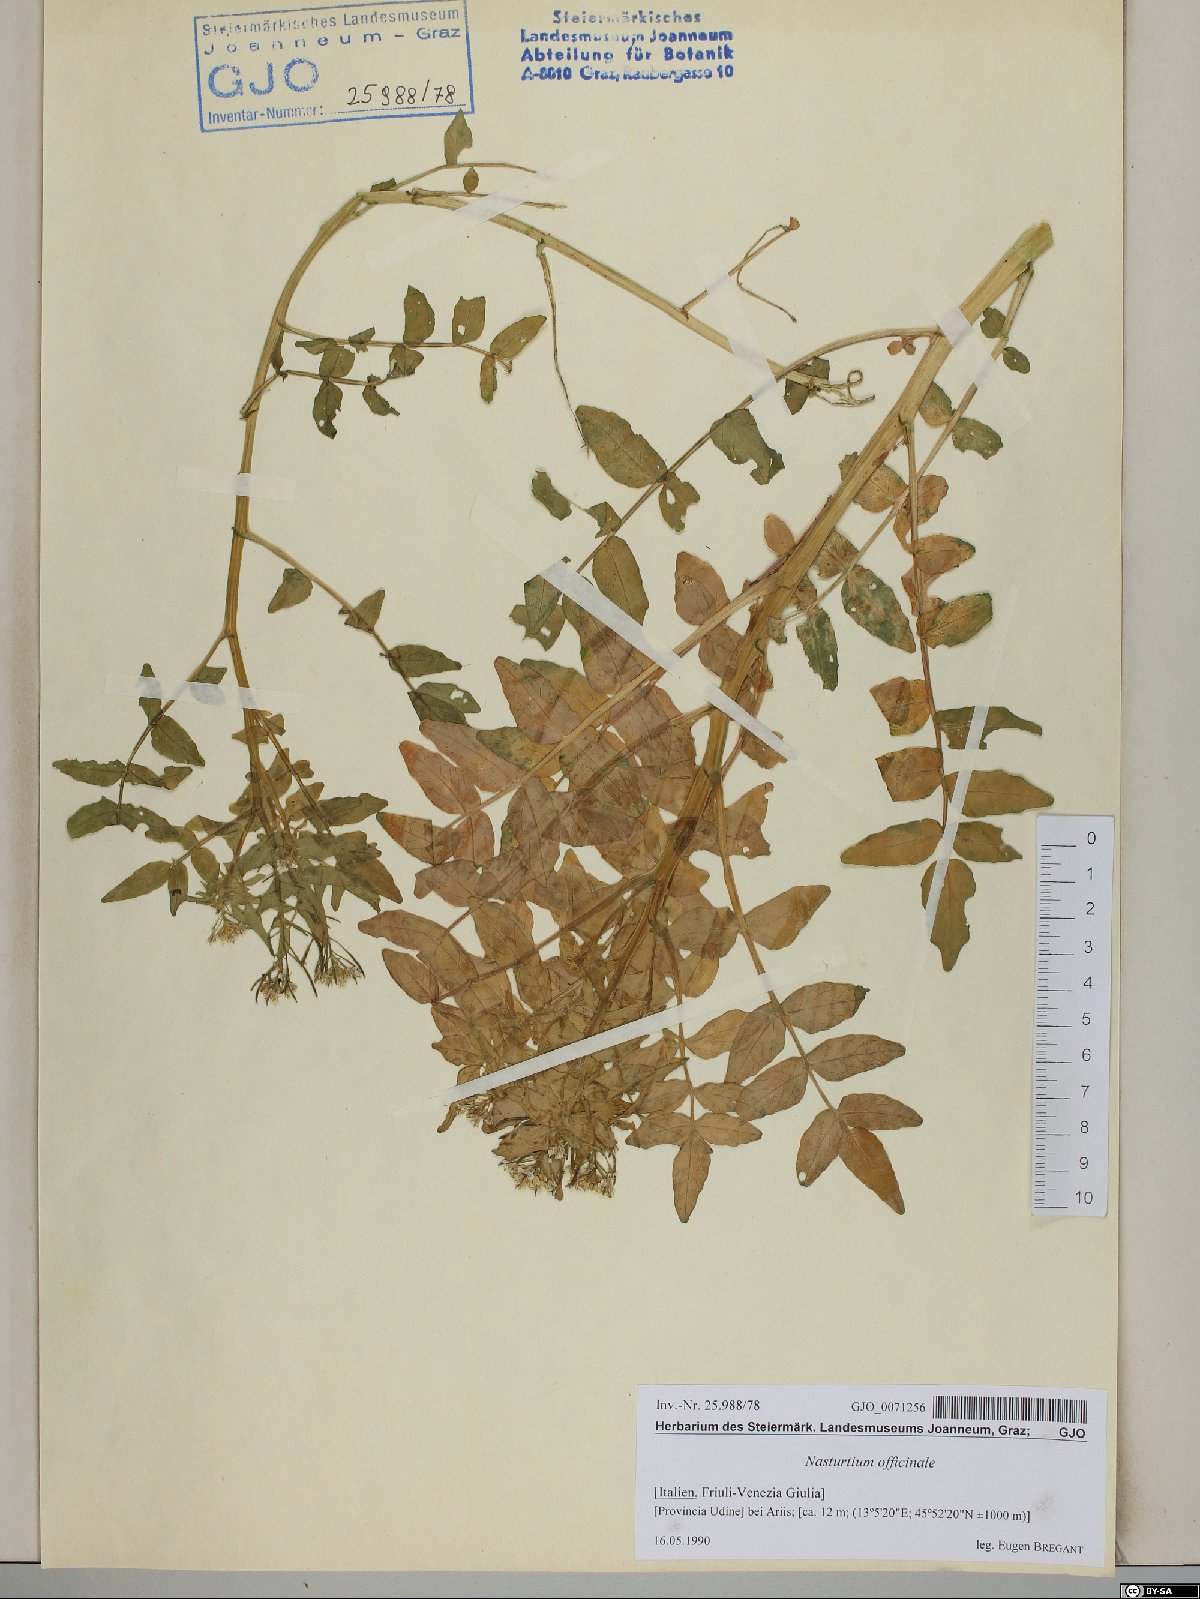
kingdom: Plantae
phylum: Tracheophyta
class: Magnoliopsida
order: Brassicales
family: Brassicaceae
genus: Nasturtium
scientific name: Nasturtium officinale
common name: Watercress
